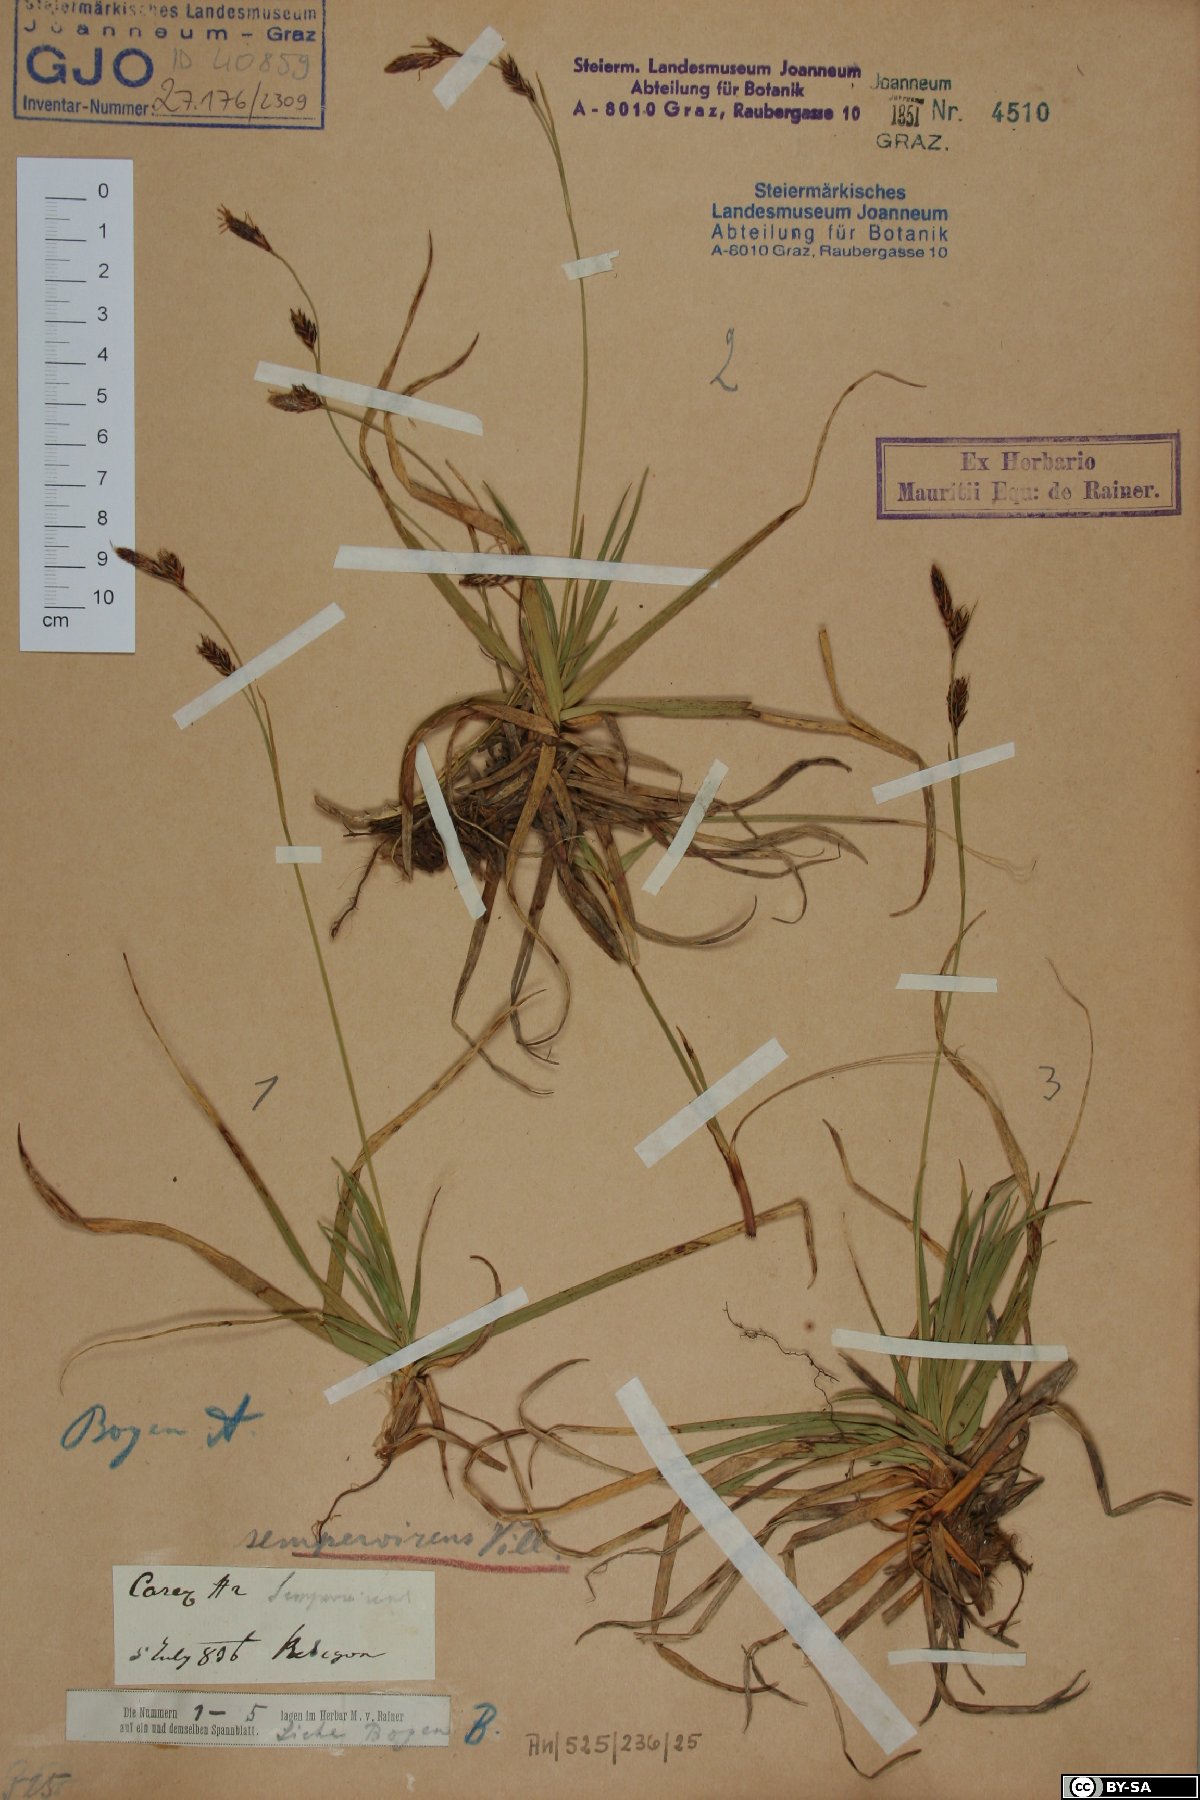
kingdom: Plantae
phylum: Tracheophyta
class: Liliopsida
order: Poales
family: Cyperaceae
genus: Carex
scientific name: Carex sempervirens
